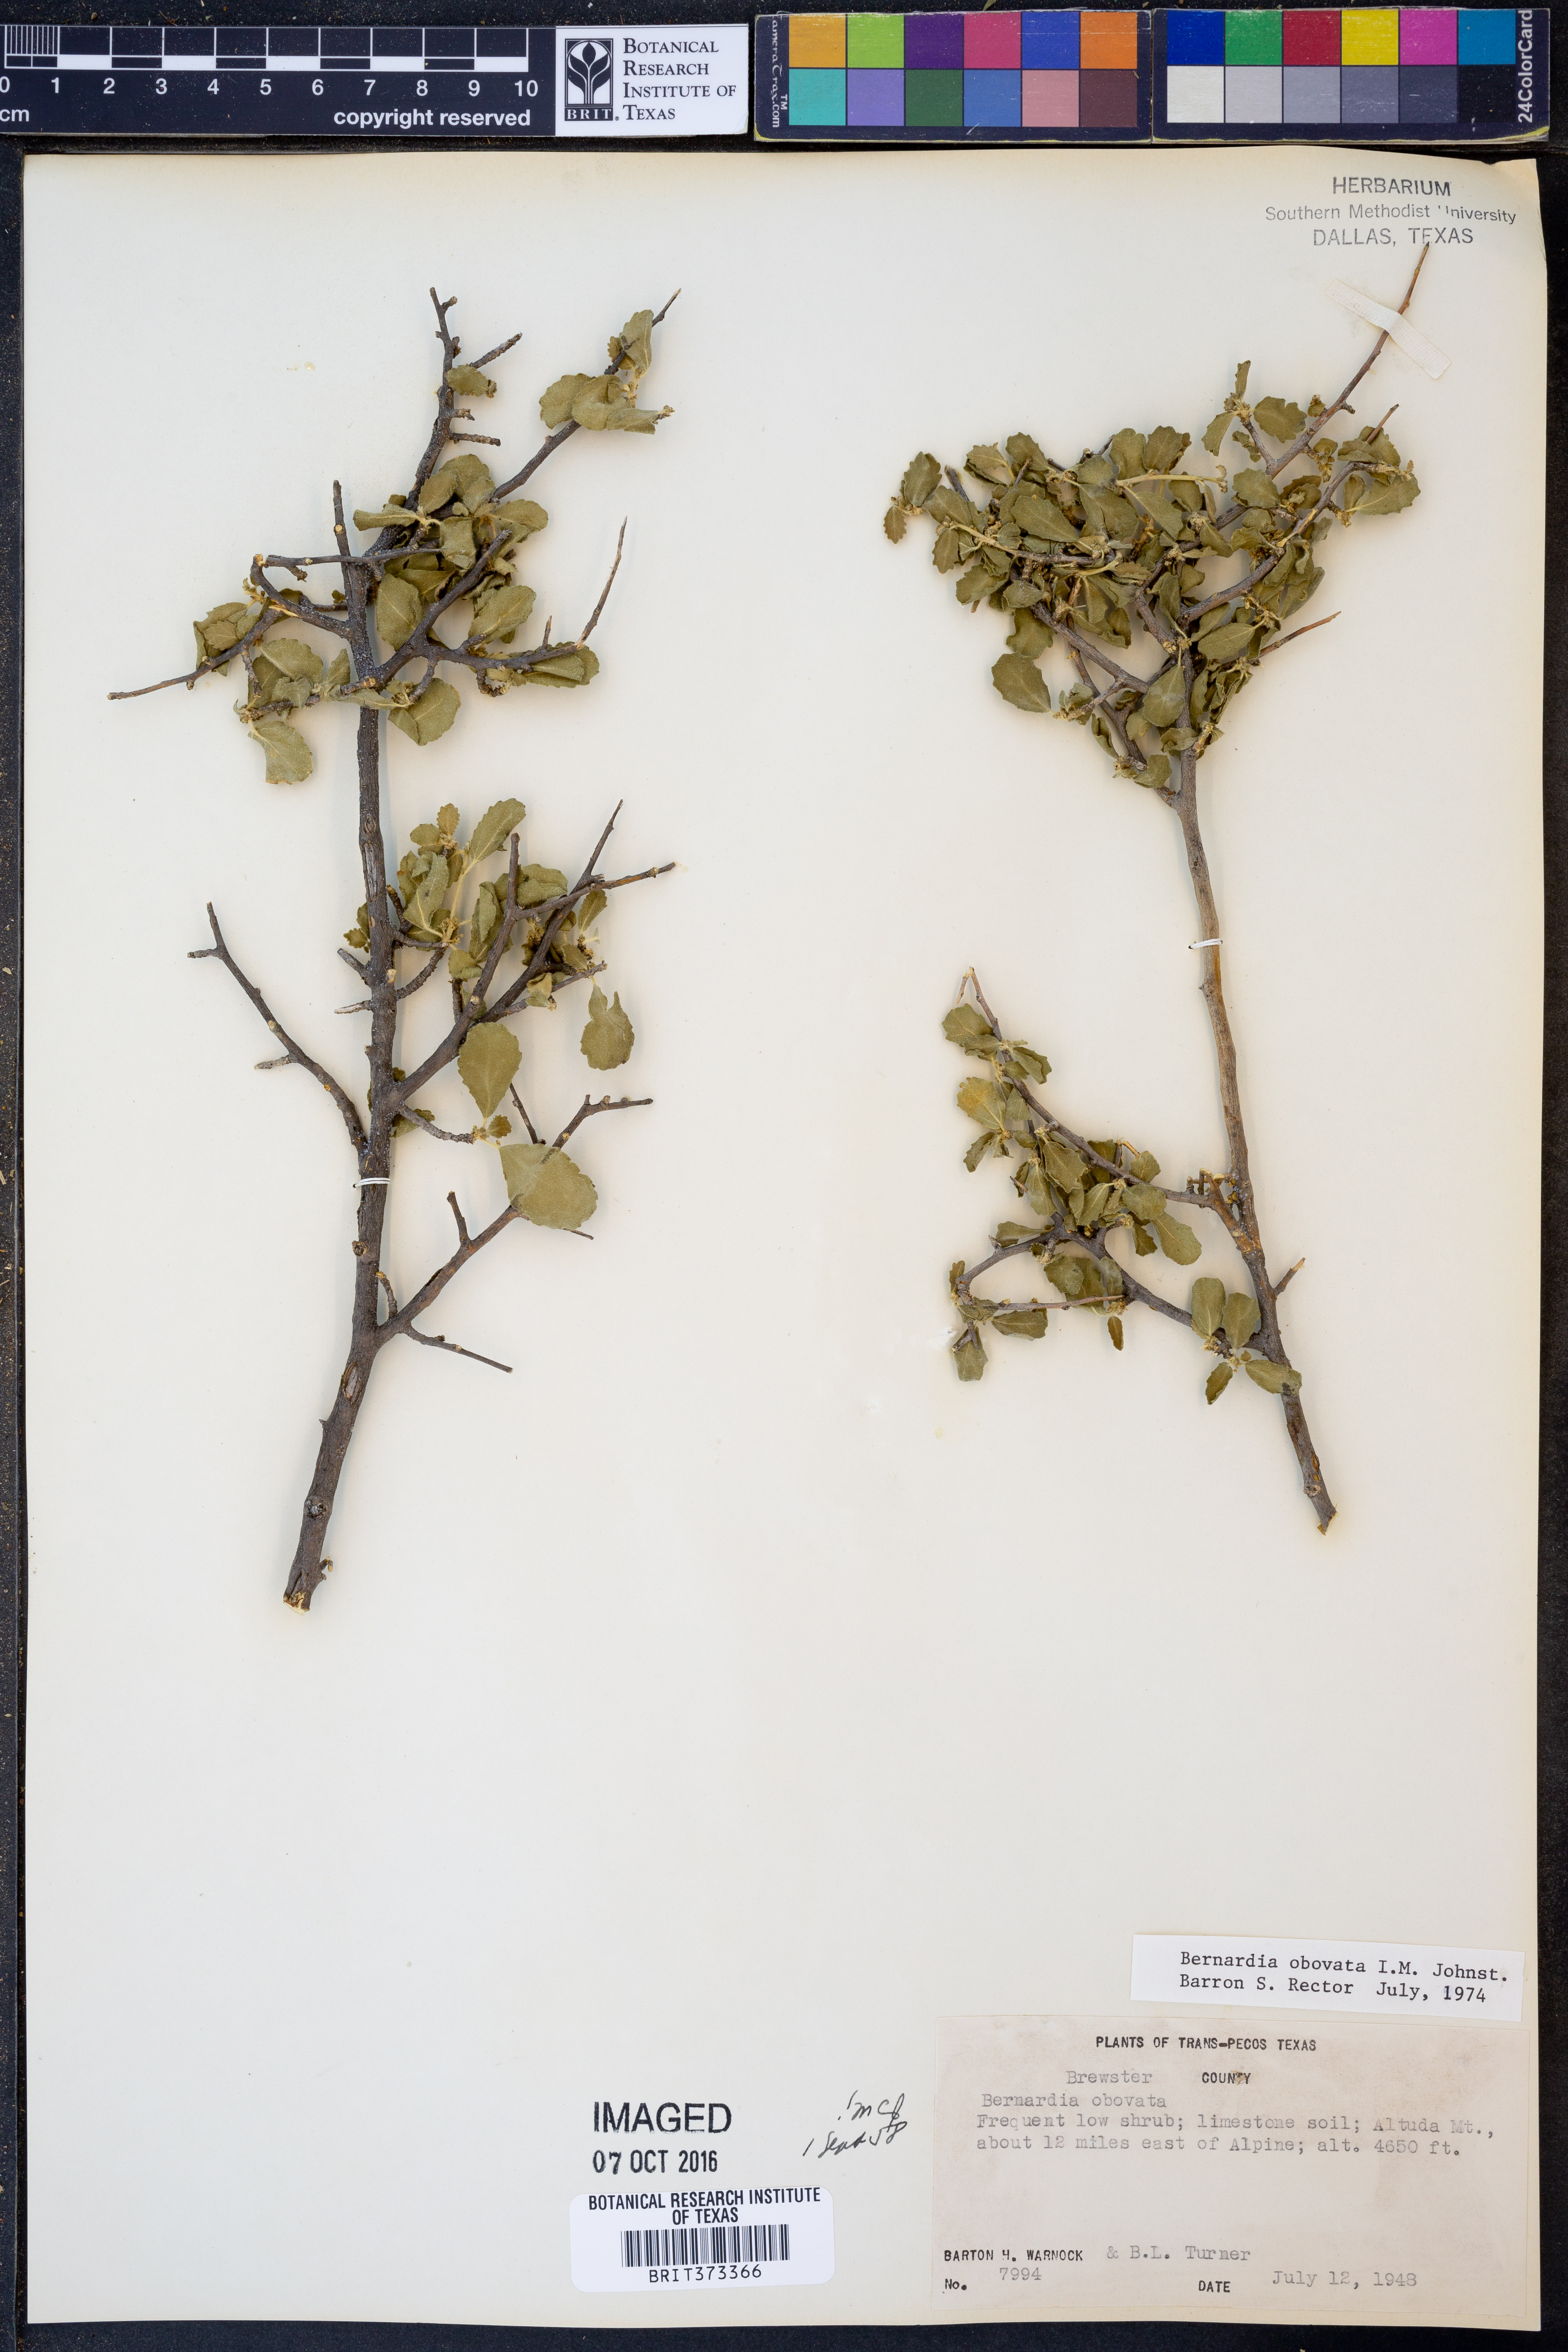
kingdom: Plantae
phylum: Tracheophyta
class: Magnoliopsida
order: Malpighiales
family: Euphorbiaceae
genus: Bernardia
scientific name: Bernardia obovata
